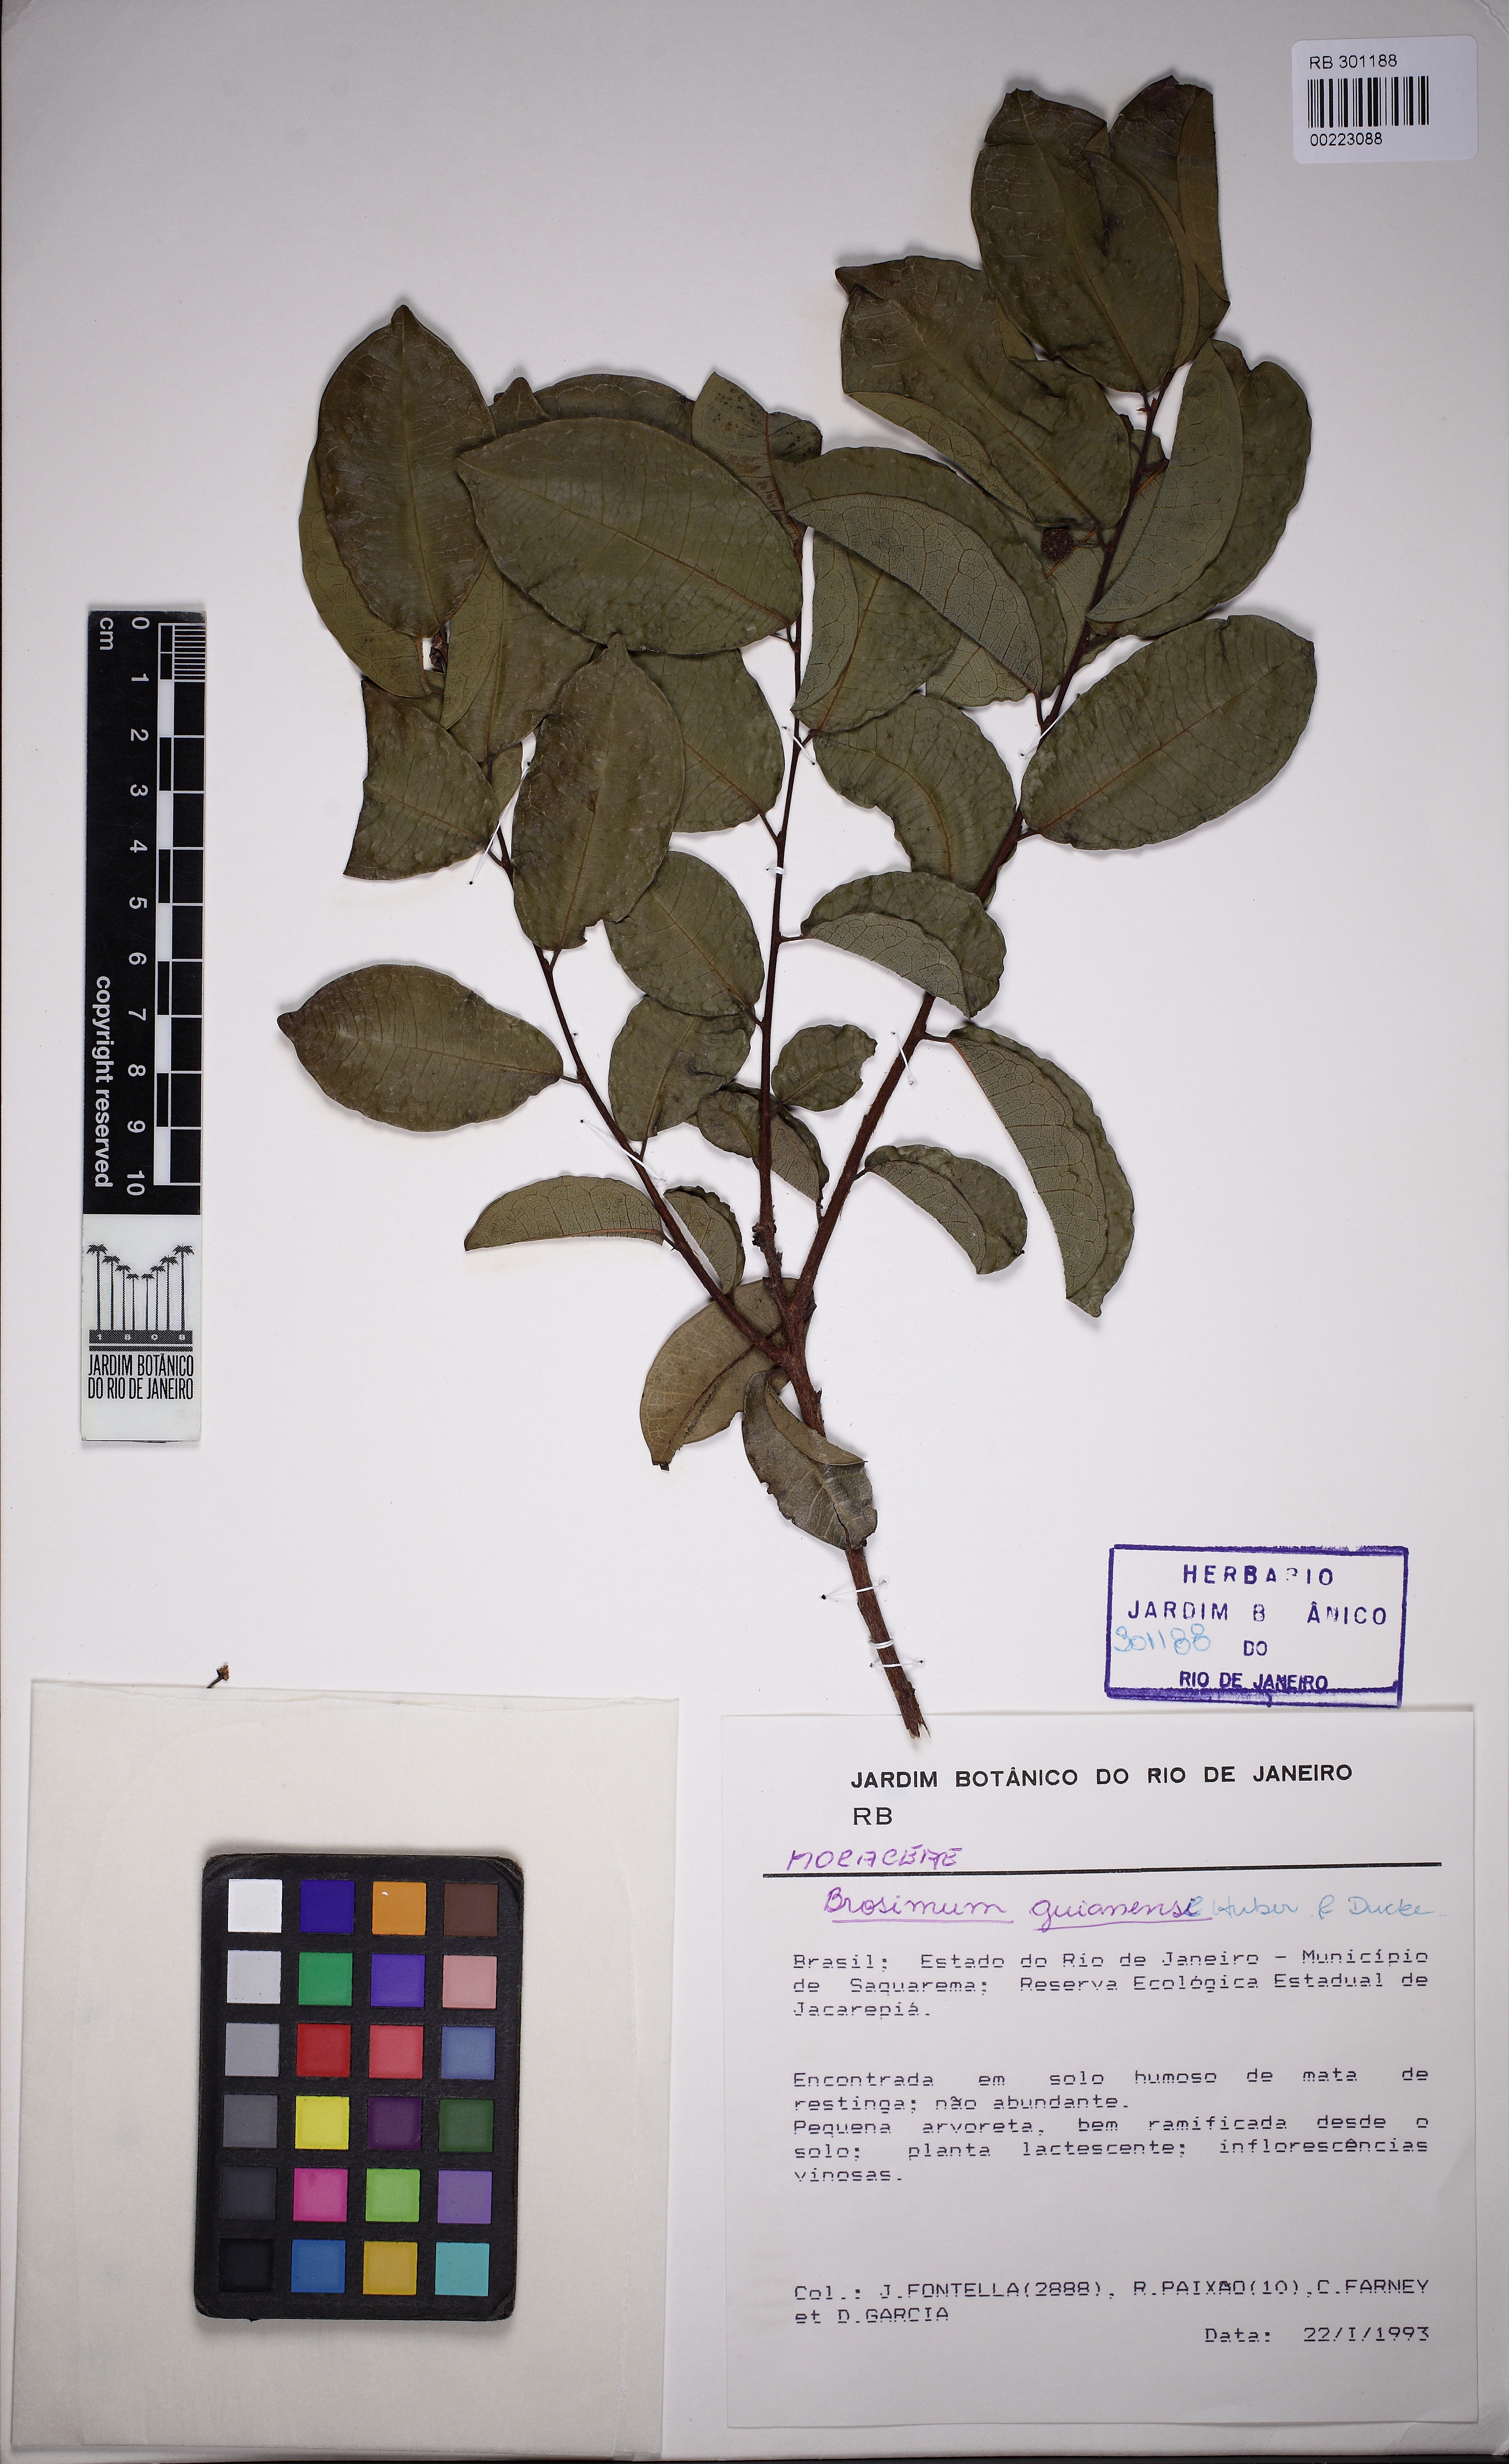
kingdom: Plantae
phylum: Tracheophyta
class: Magnoliopsida
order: Rosales
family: Moraceae
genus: Brosimum
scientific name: Brosimum guianense
